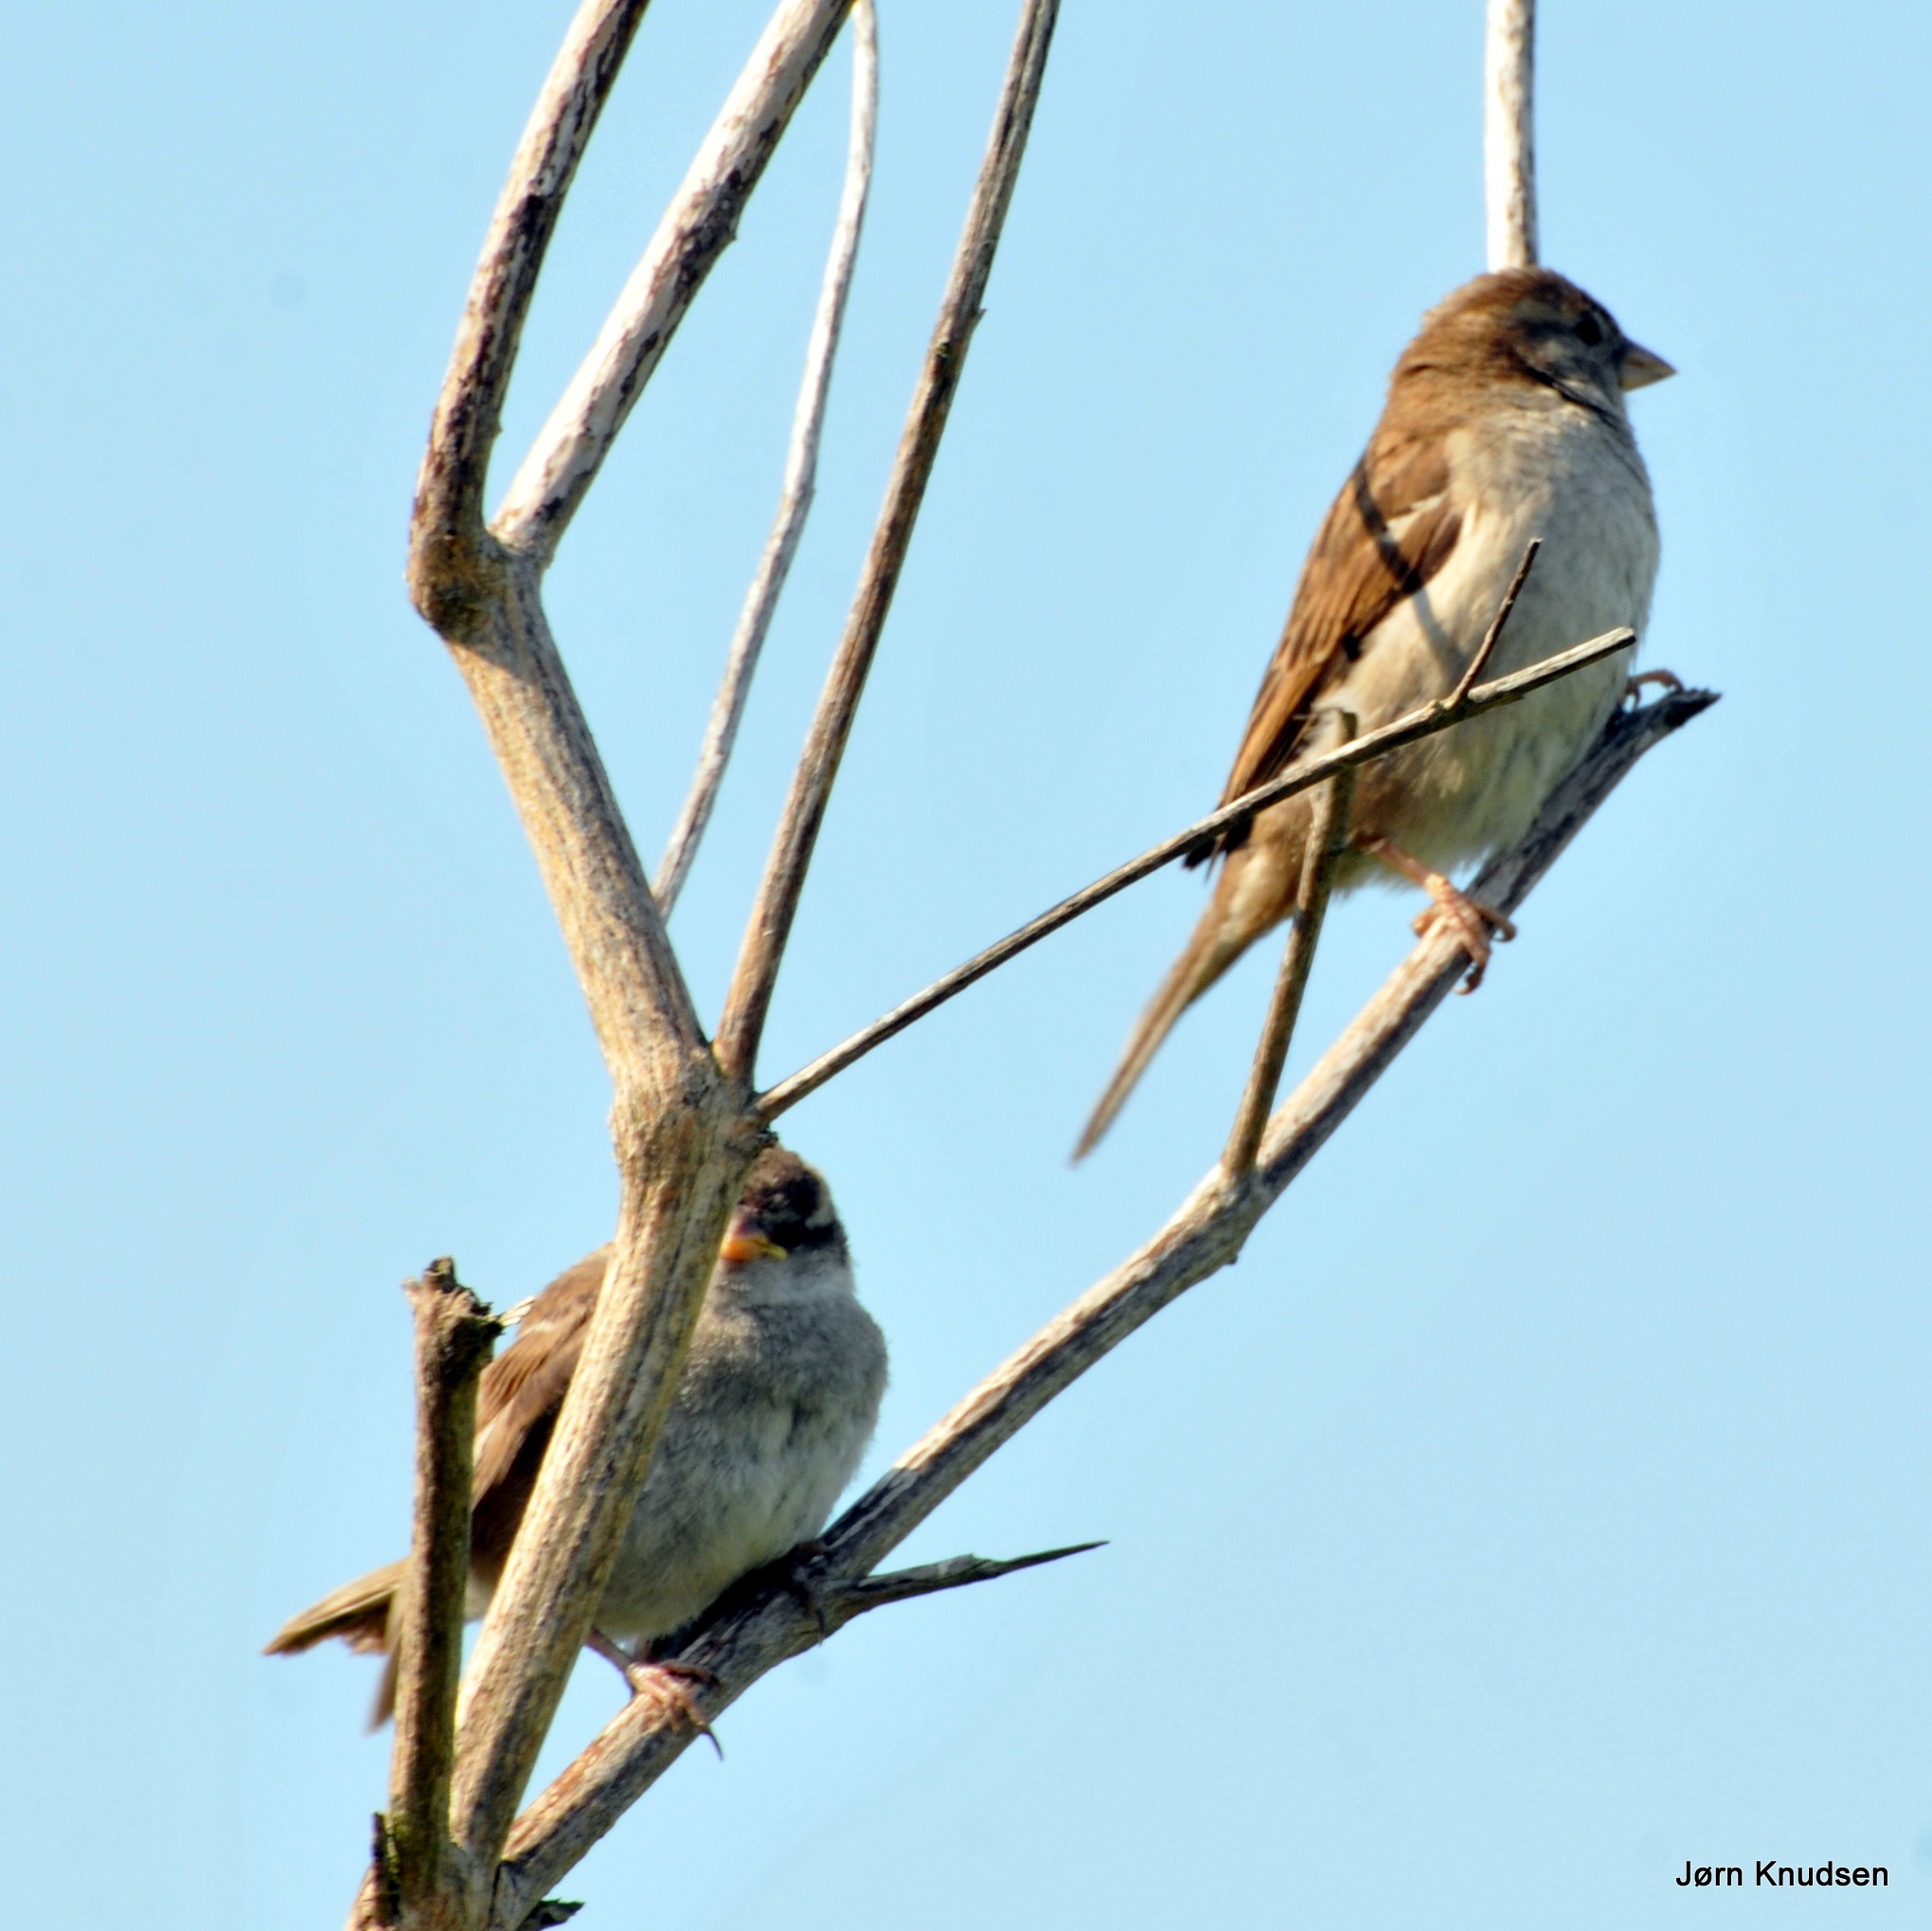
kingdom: Animalia
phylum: Chordata
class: Aves
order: Passeriformes
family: Passeridae
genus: Passer
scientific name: Passer domesticus
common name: Gråspurv
